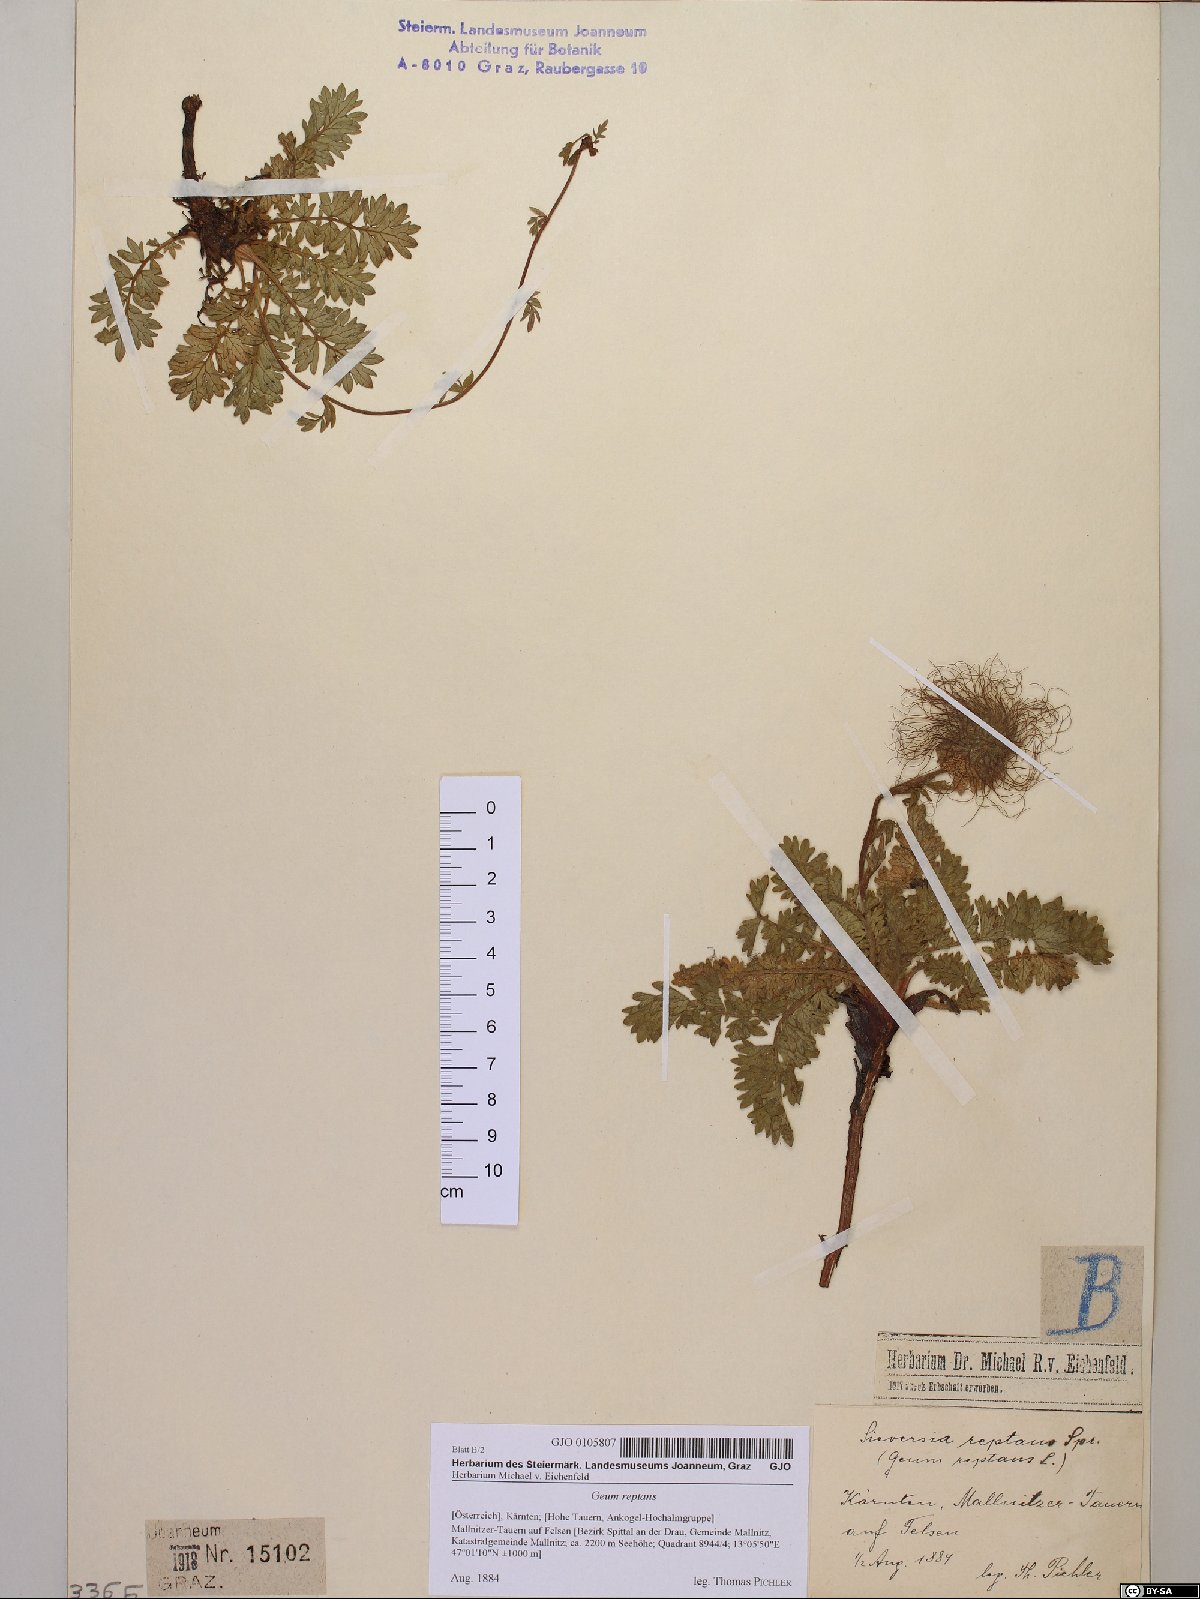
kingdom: Plantae
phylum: Tracheophyta
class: Magnoliopsida
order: Rosales
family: Rosaceae
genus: Geum
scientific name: Geum reptans
